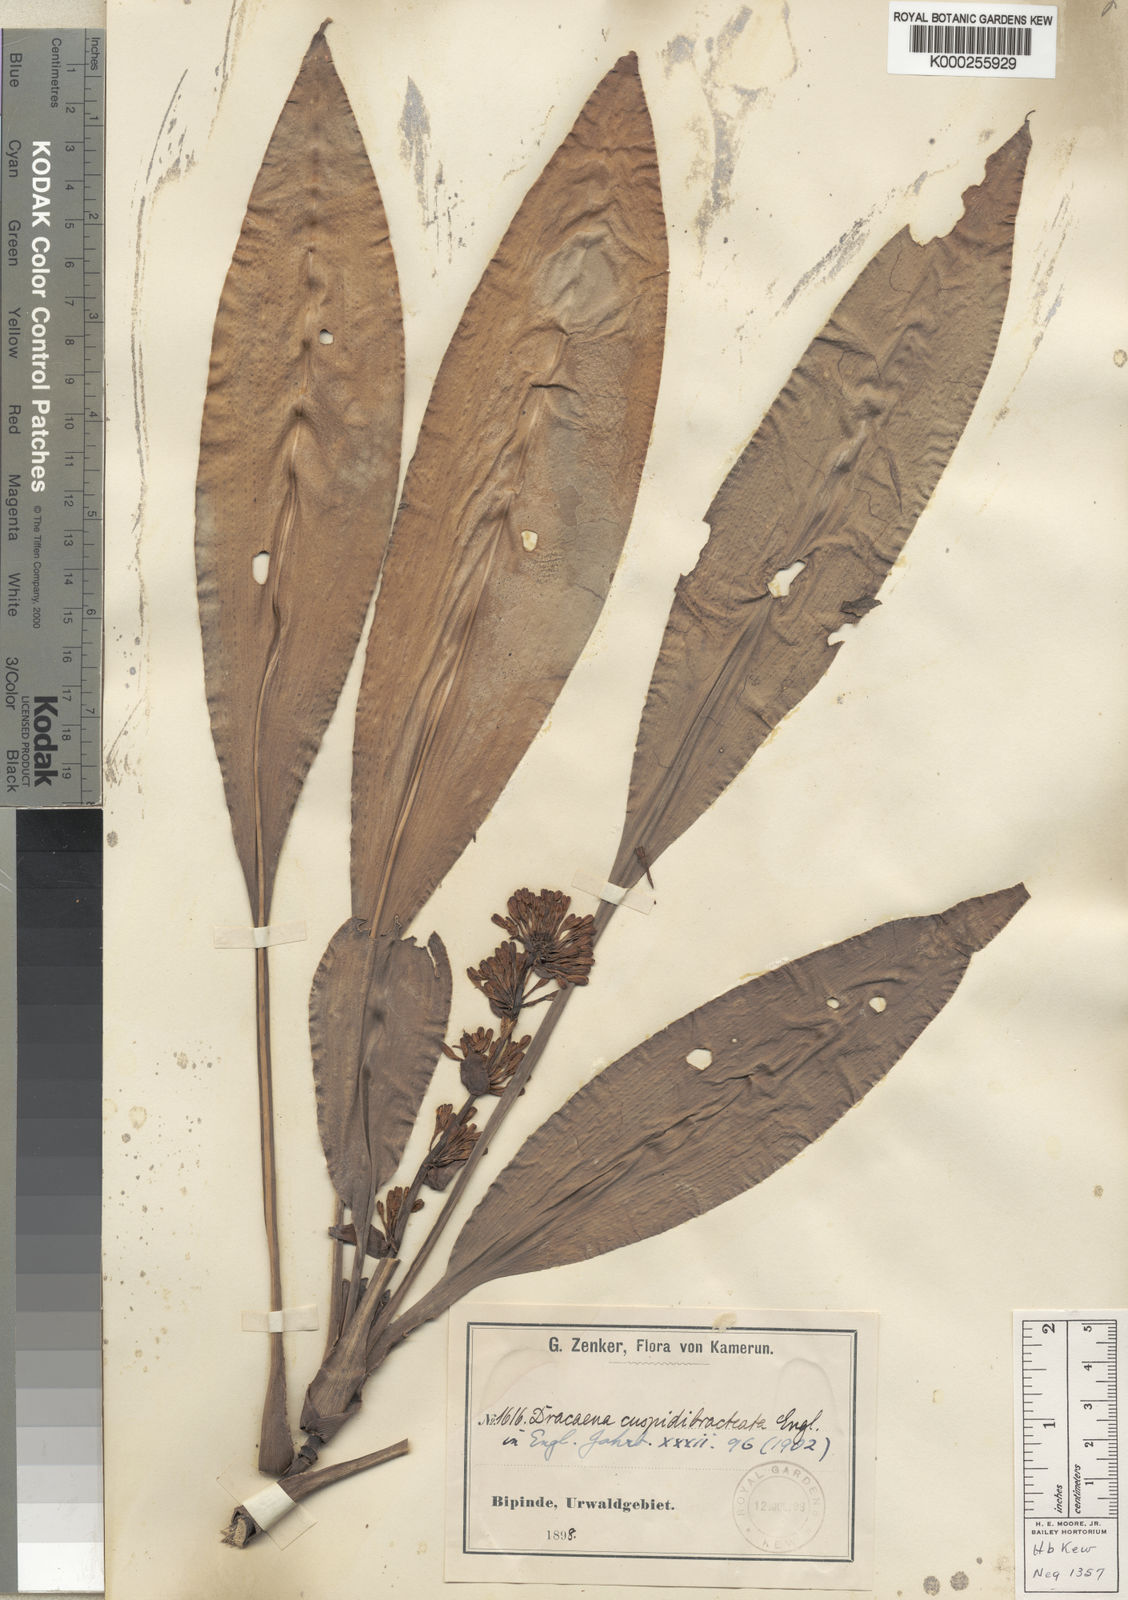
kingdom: Plantae
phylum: Tracheophyta
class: Liliopsida
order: Asparagales
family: Asparagaceae
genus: Dracaena
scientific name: Dracaena congoensis
